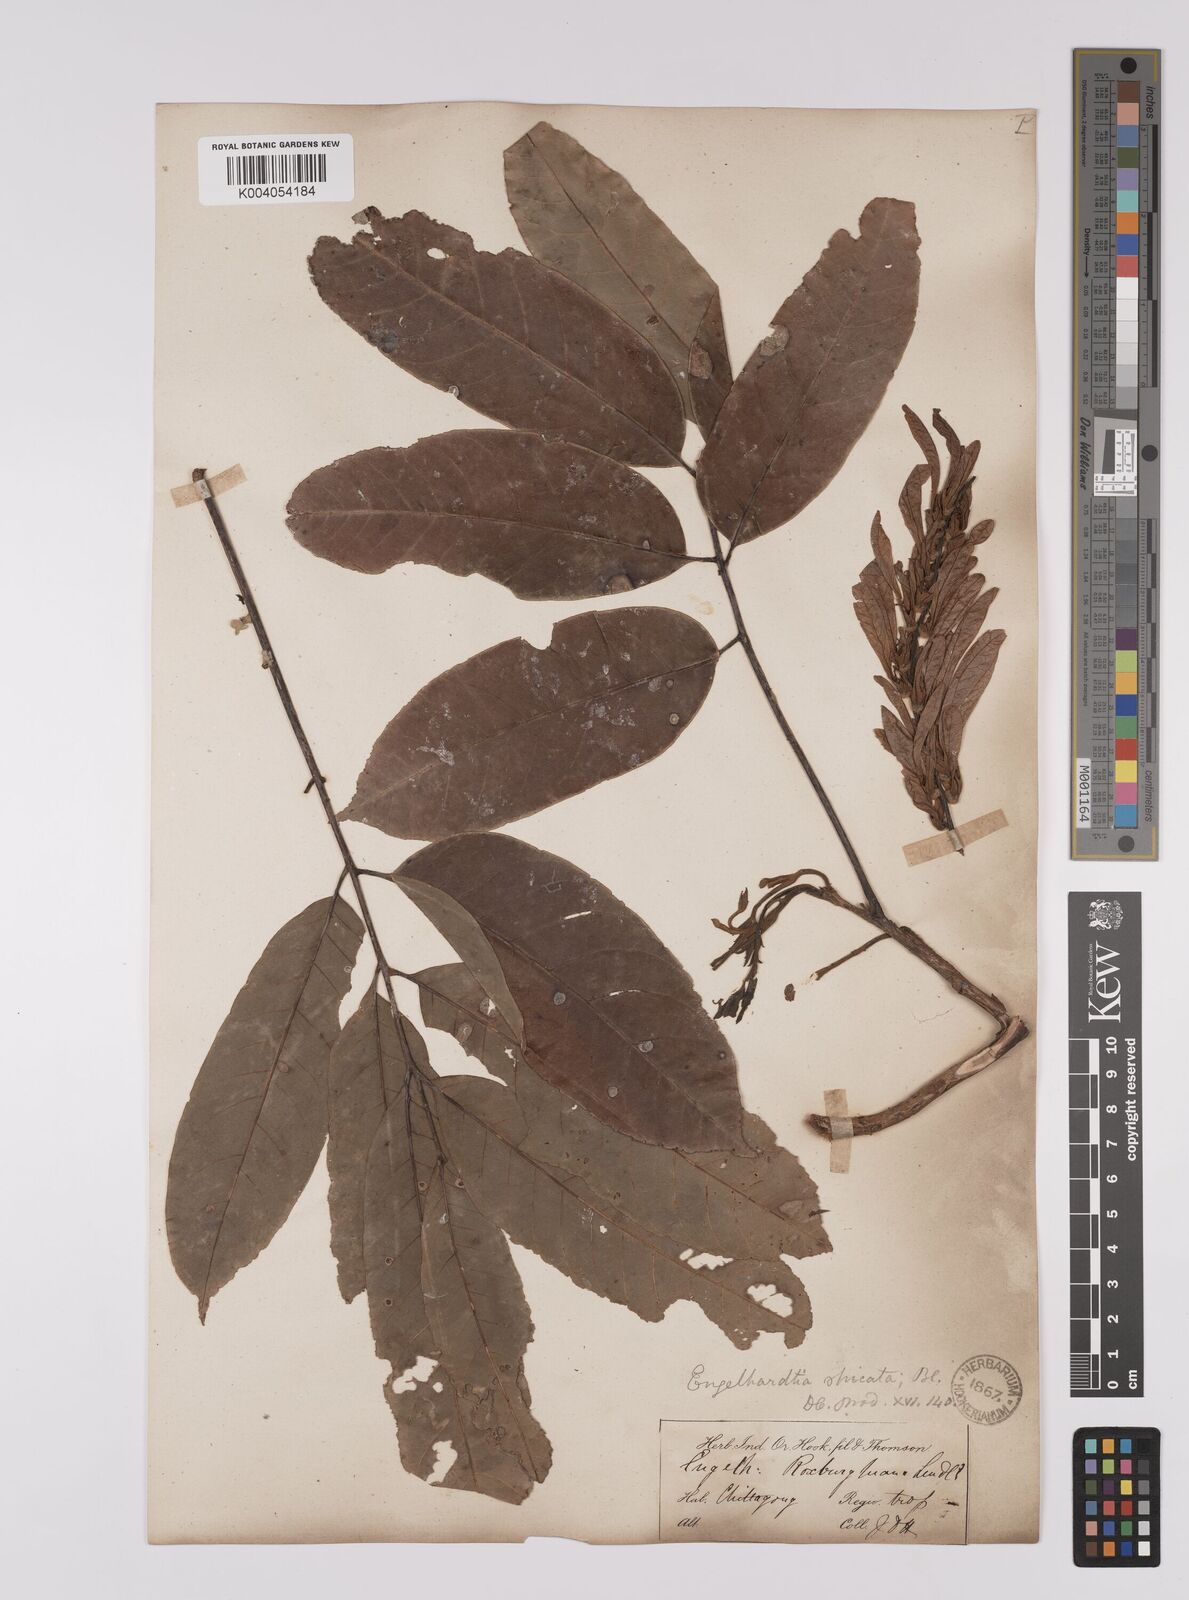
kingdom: Plantae
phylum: Tracheophyta
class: Magnoliopsida
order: Fagales
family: Juglandaceae
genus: Engelhardia
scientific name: Engelhardia spicata
